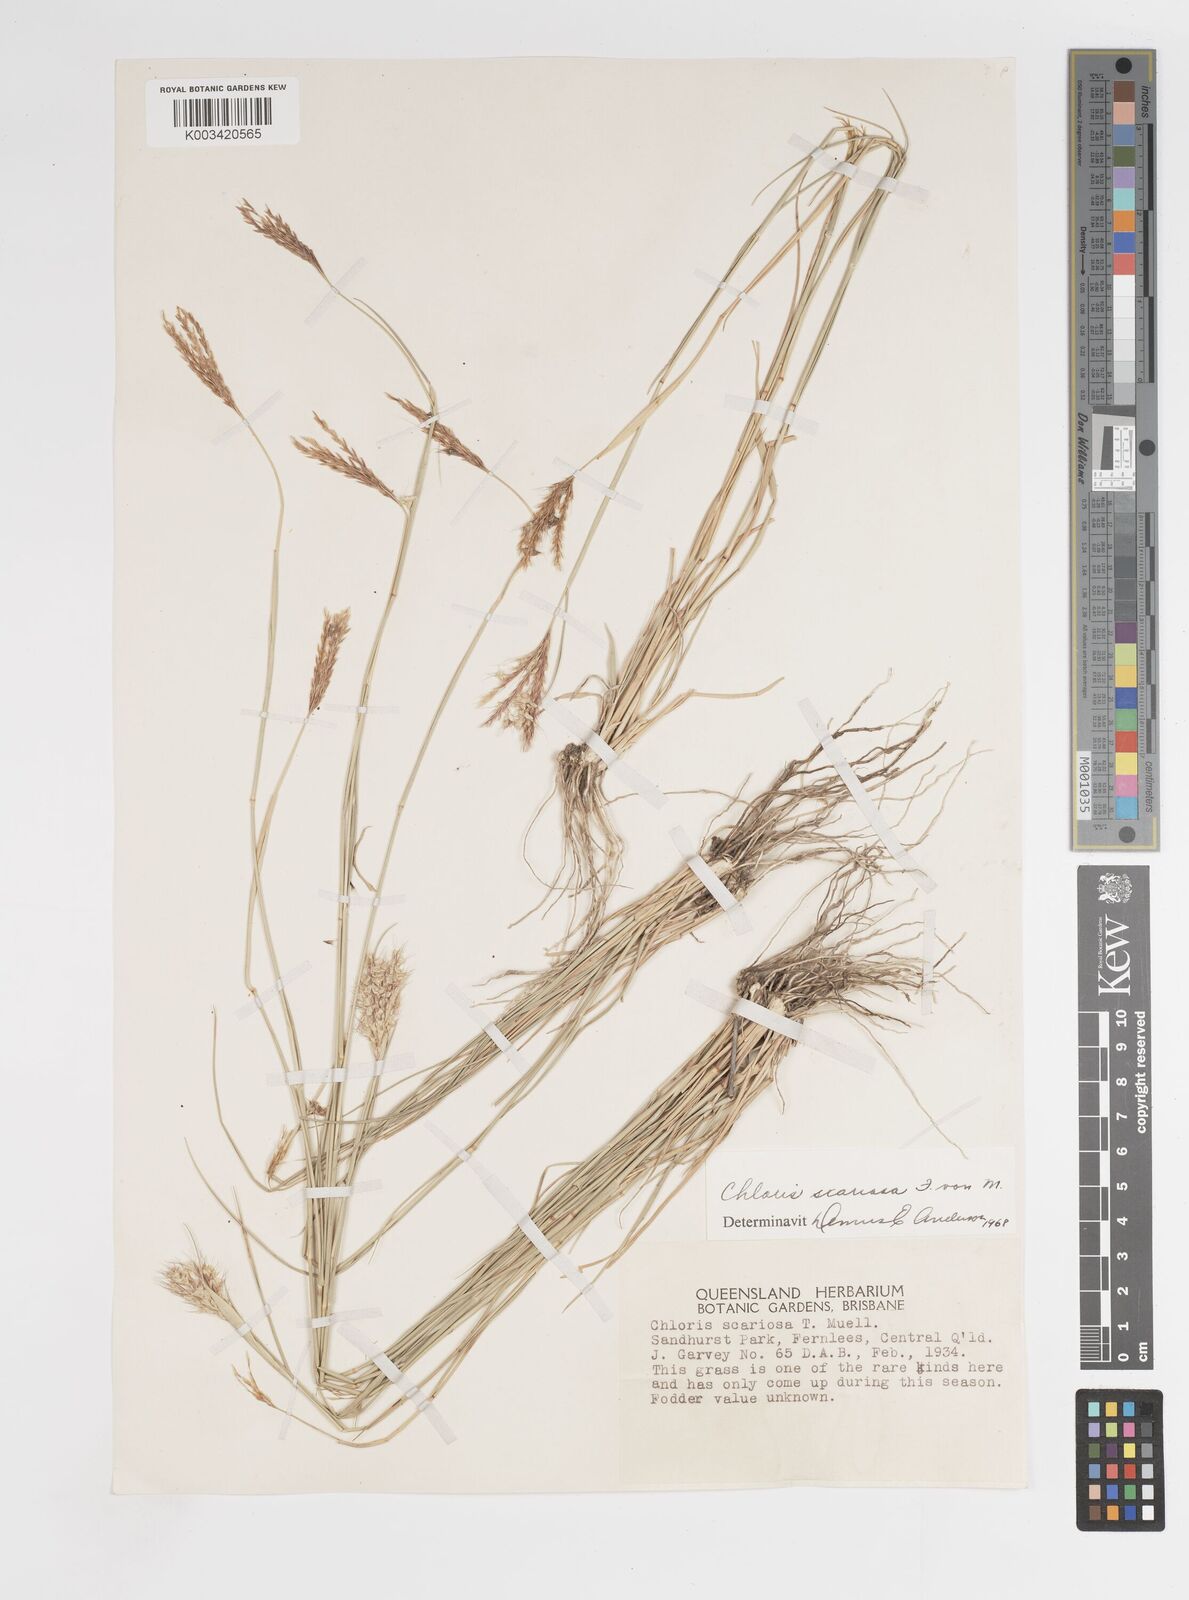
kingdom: Plantae
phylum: Tracheophyta
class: Liliopsida
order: Poales
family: Poaceae
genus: Oxychloris
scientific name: Oxychloris scariosa
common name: Winged windmill grass
